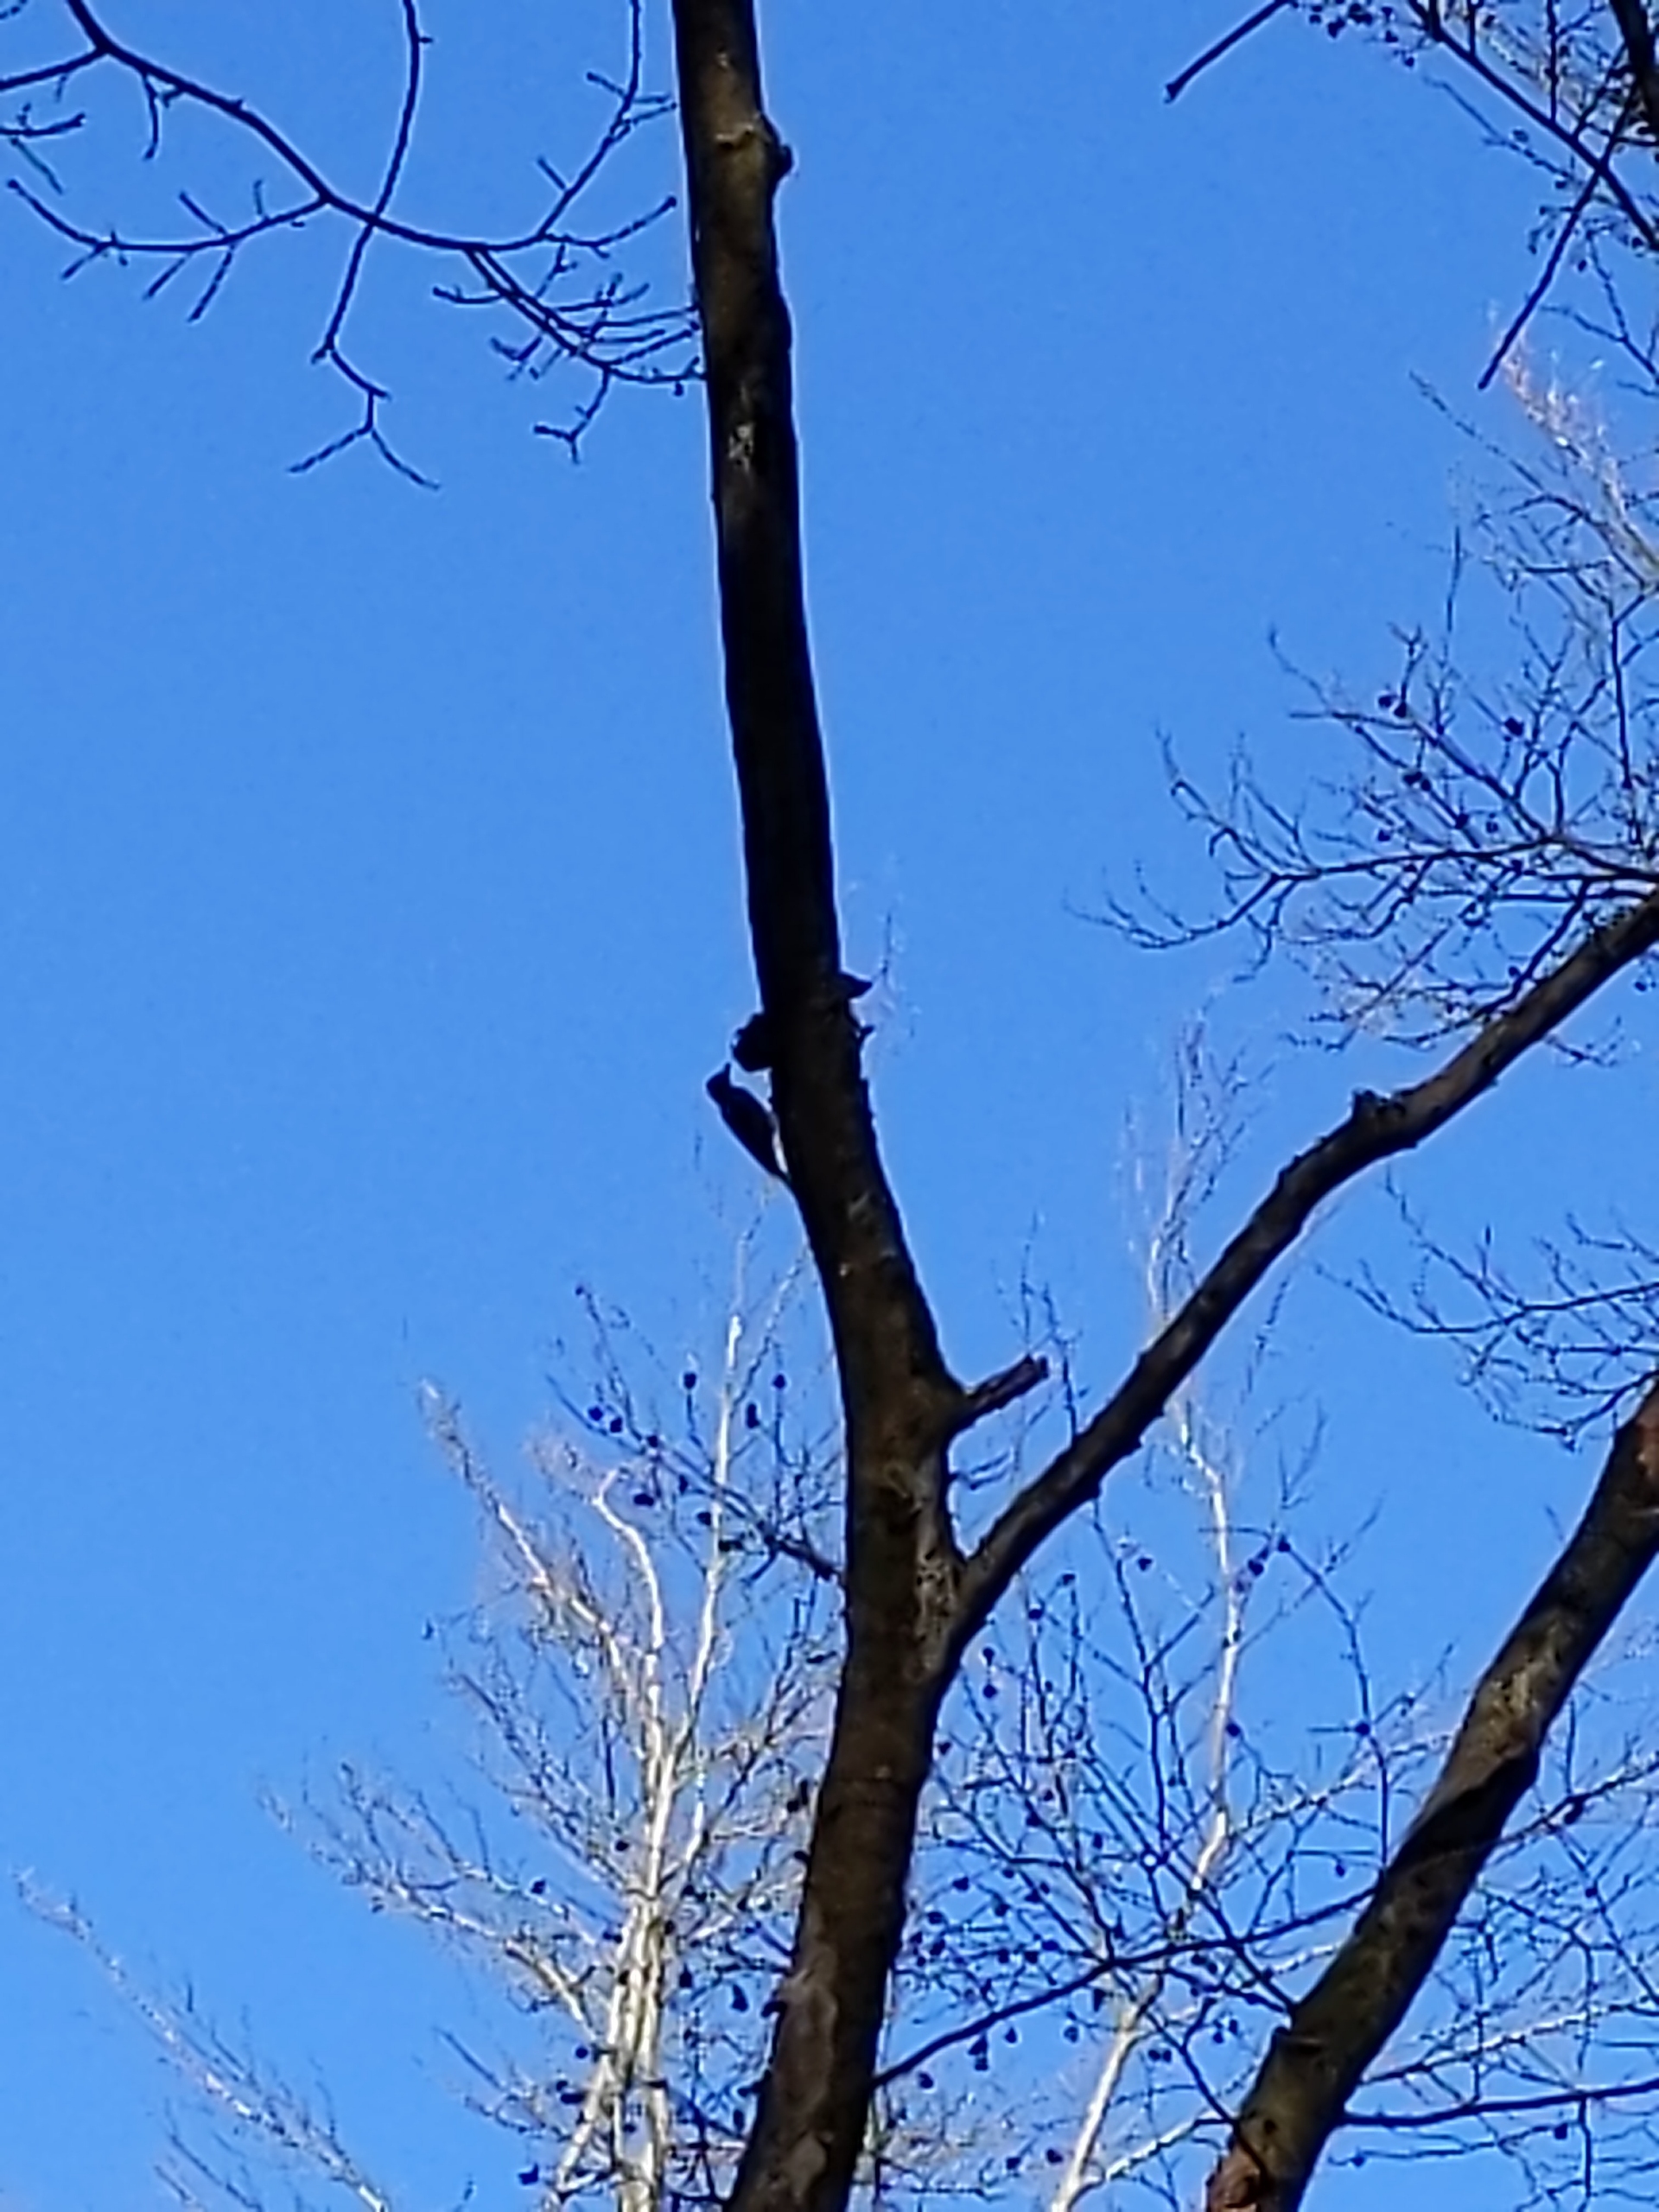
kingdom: Animalia
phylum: Chordata
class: Aves
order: Piciformes
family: Picidae
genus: Dendrocopos
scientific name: Dendrocopos major
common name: Stor flagspætte
